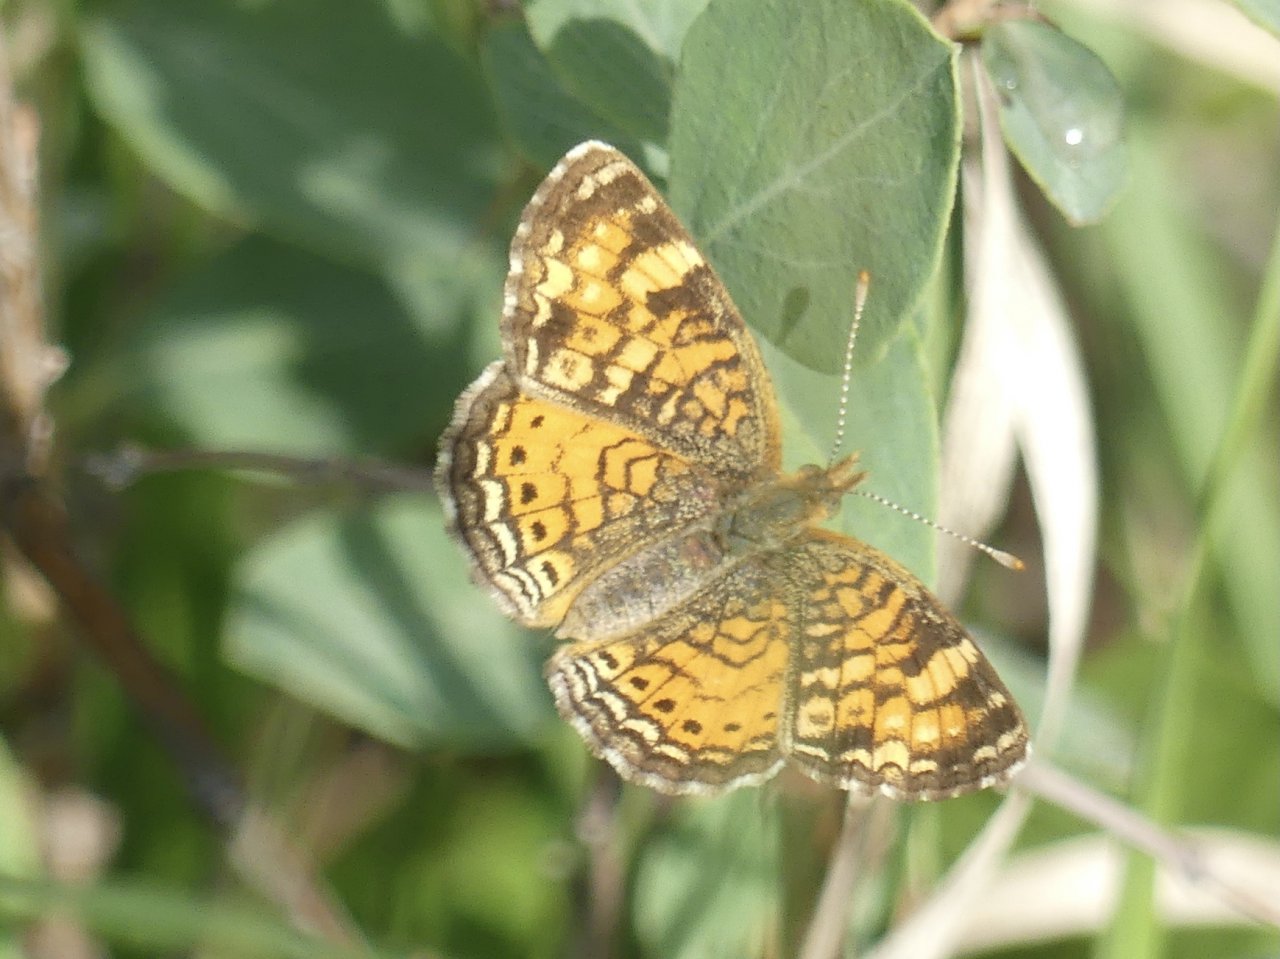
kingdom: Animalia
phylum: Arthropoda
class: Insecta
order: Lepidoptera
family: Nymphalidae
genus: Phyciodes
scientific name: Phyciodes tharos
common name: Pearl Crescent
